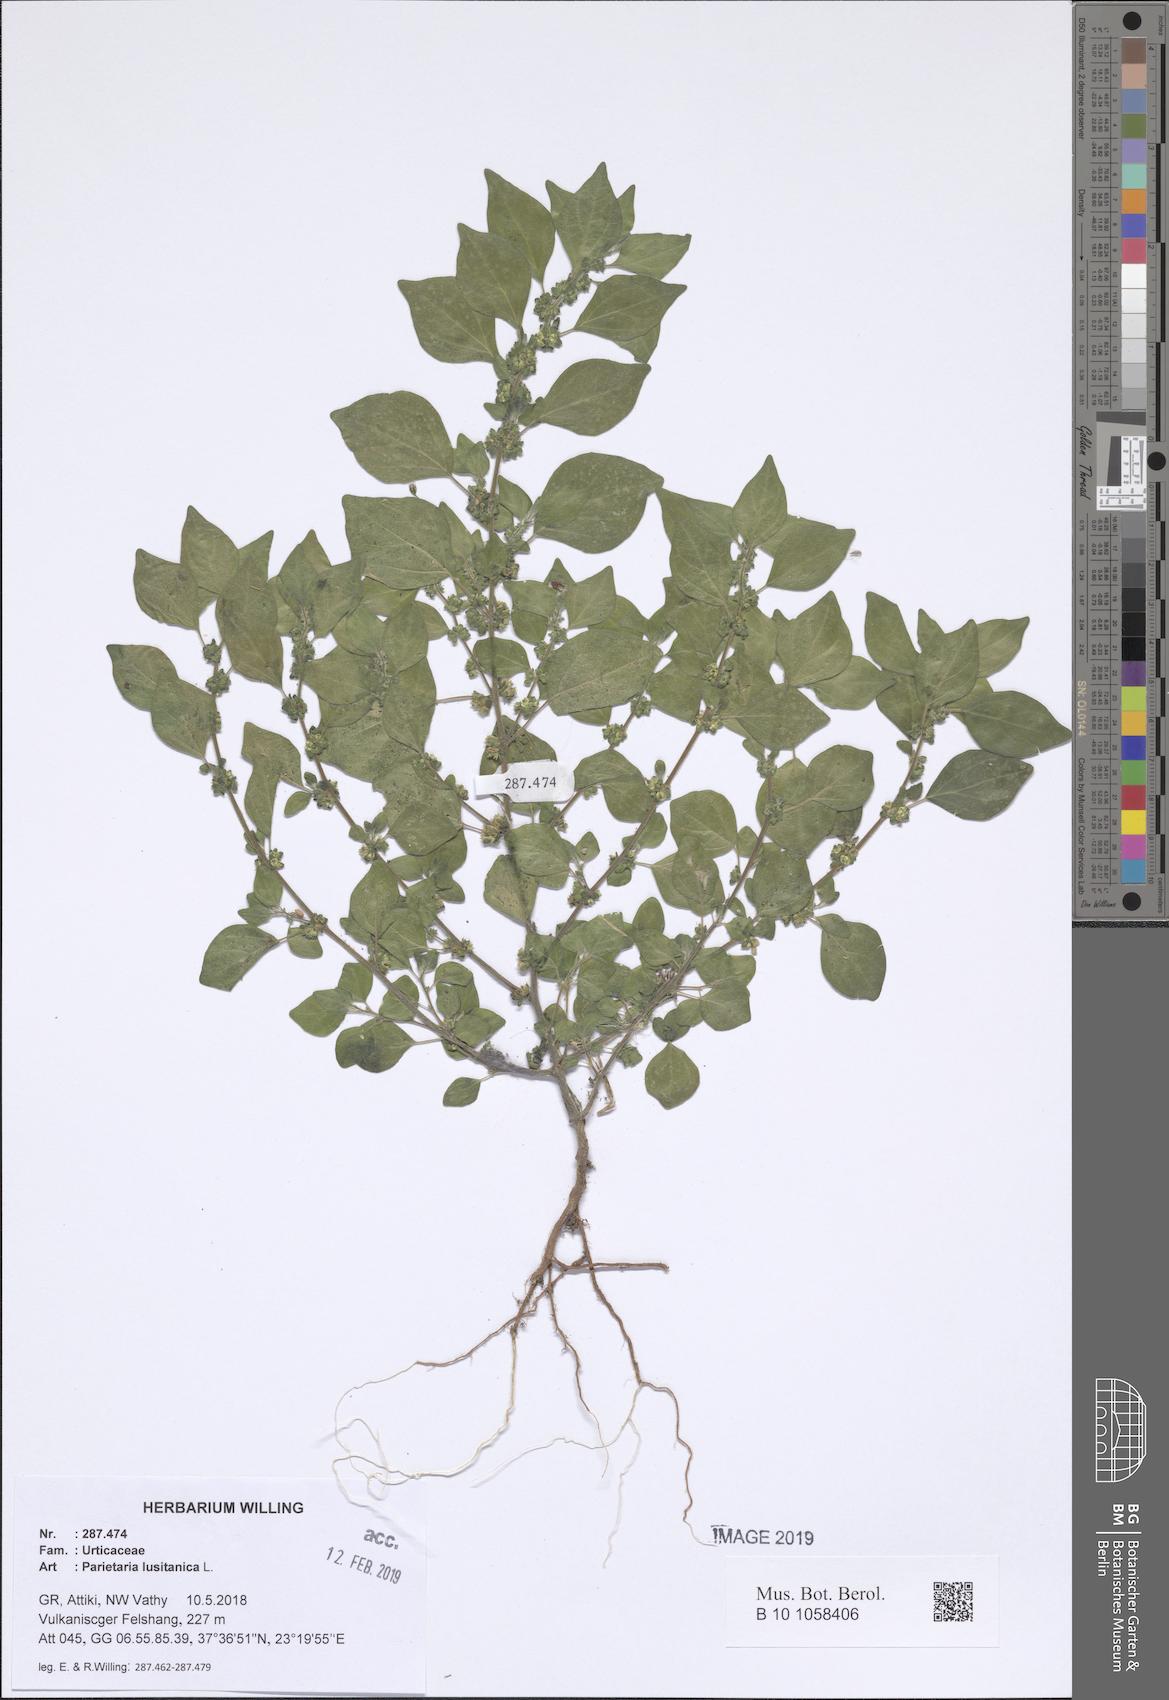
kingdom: Plantae
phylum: Tracheophyta
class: Magnoliopsida
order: Rosales
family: Urticaceae
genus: Parietaria
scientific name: Parietaria lusitanica
